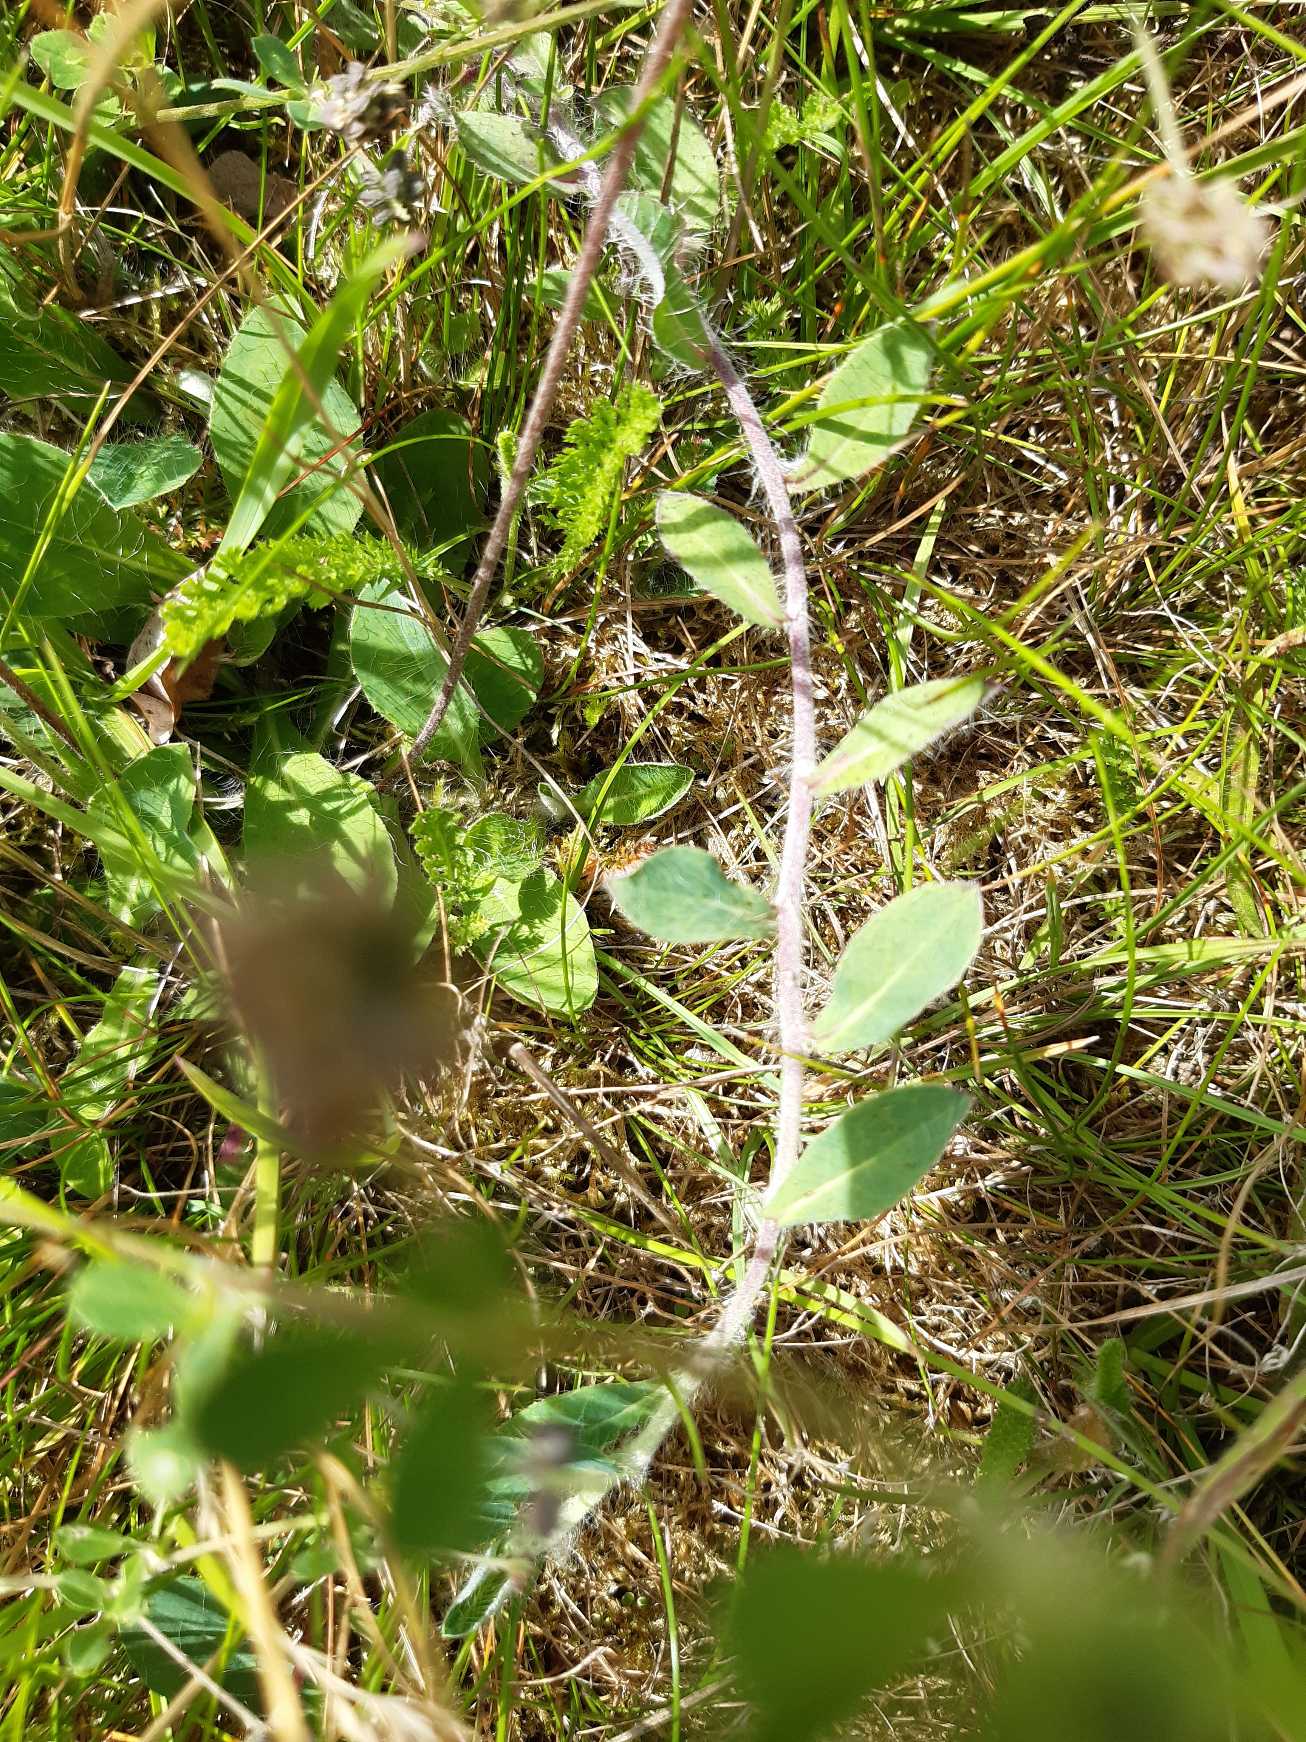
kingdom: Plantae
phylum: Tracheophyta
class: Magnoliopsida
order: Asterales
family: Asteraceae
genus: Pilosella
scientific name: Pilosella officinarum
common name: Håret høgeurt
